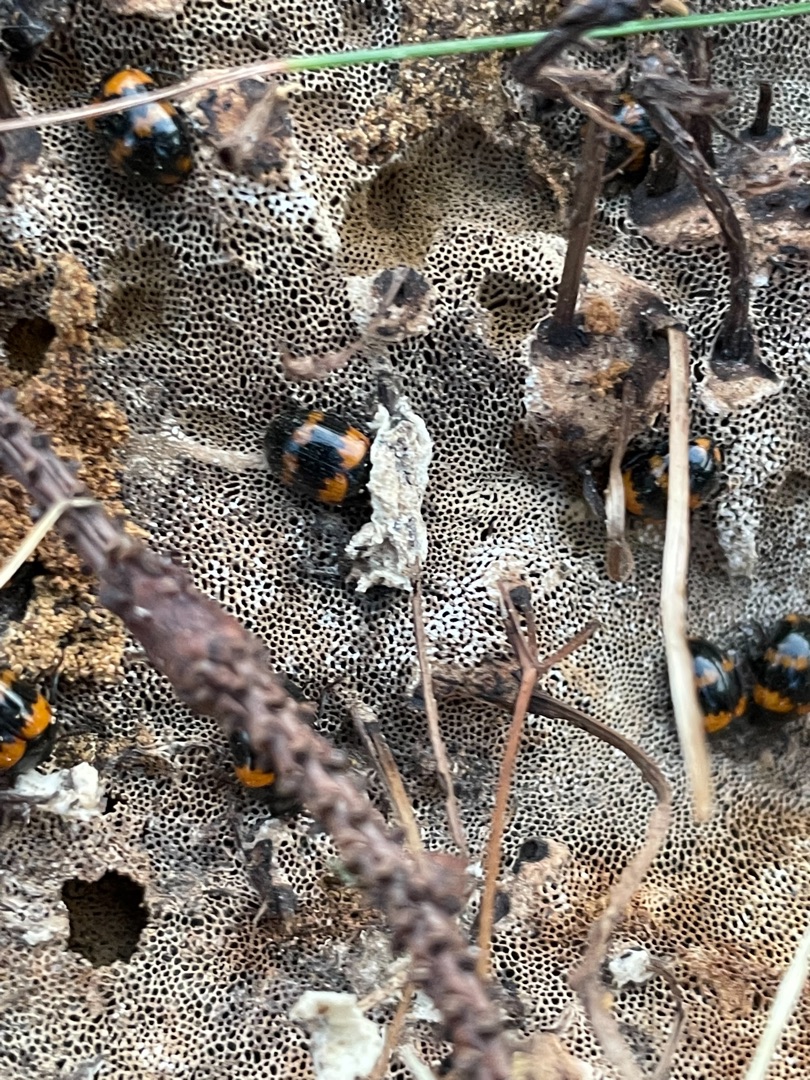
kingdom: Animalia
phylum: Arthropoda
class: Insecta
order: Coleoptera
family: Tenebrionidae
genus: Diaperis
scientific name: Diaperis boleti
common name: Tigerskyggebille
